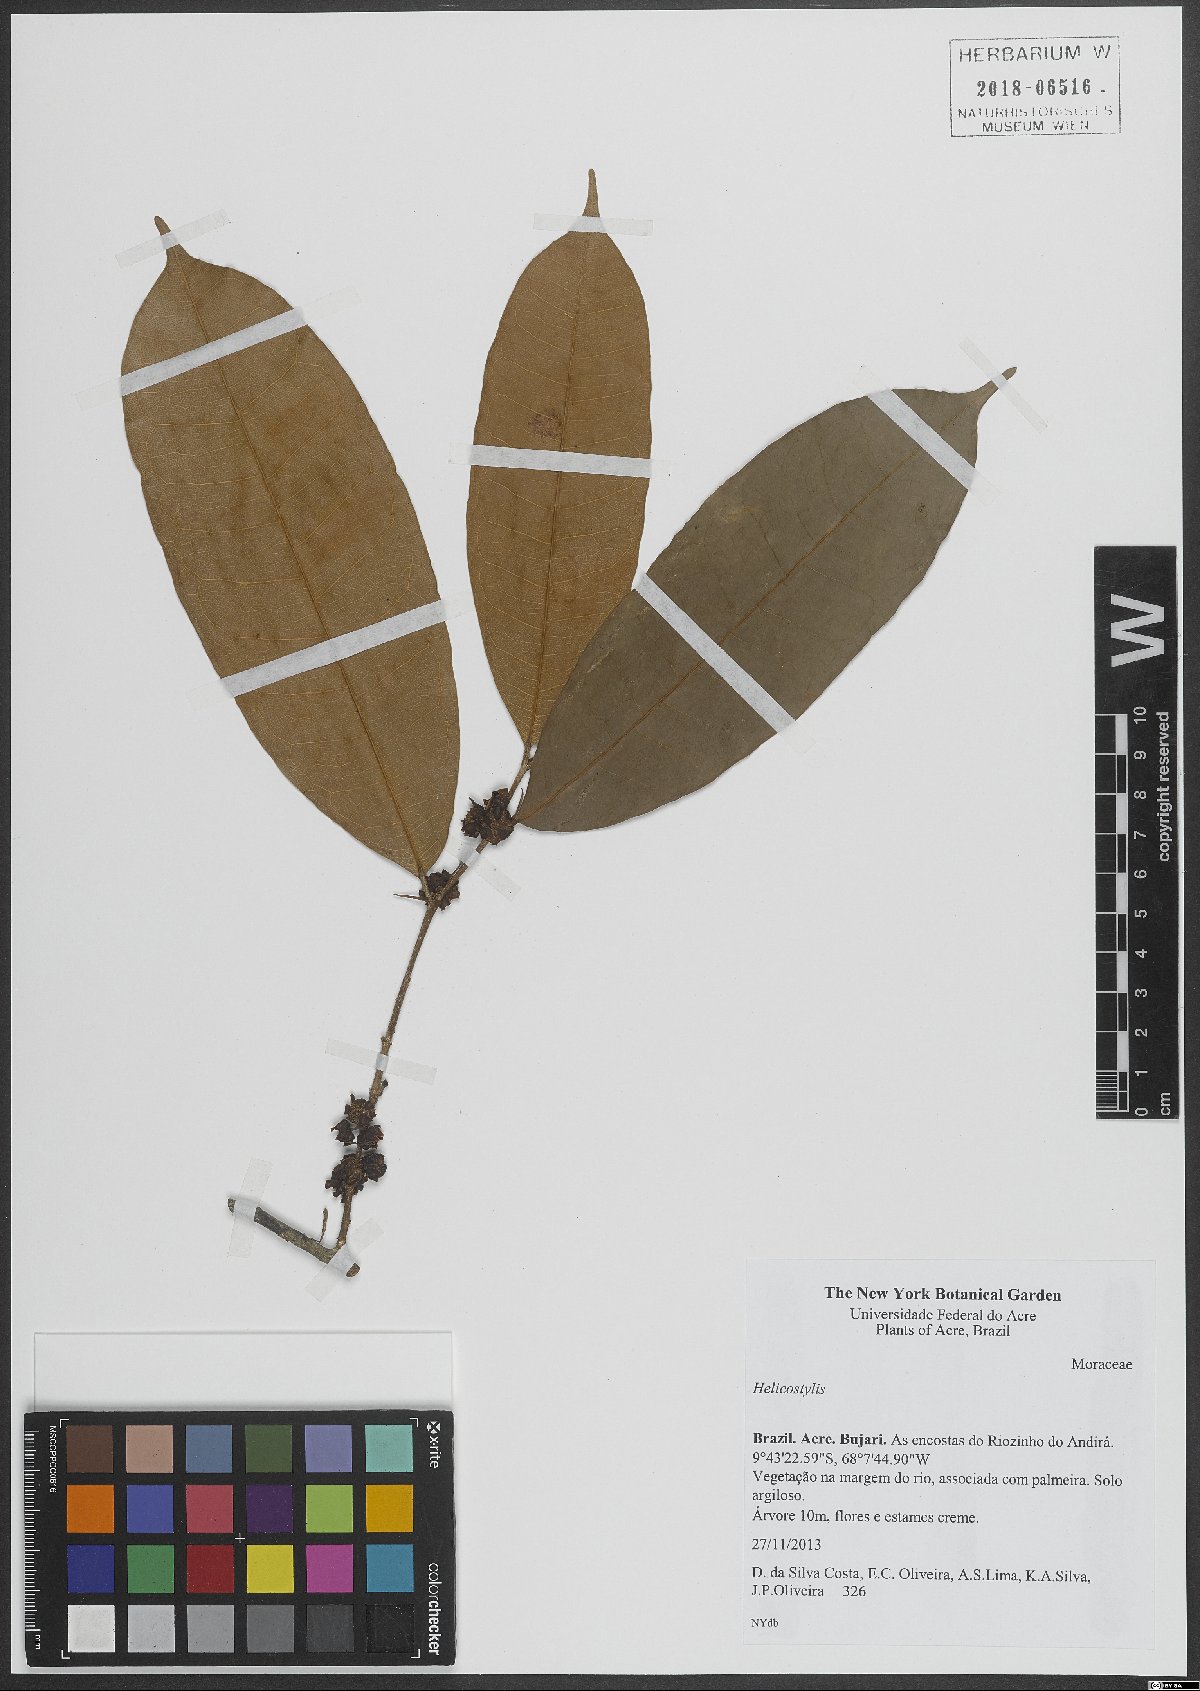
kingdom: Plantae
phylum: Tracheophyta
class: Magnoliopsida
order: Rosales
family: Moraceae
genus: Helicostylis
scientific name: Helicostylis
